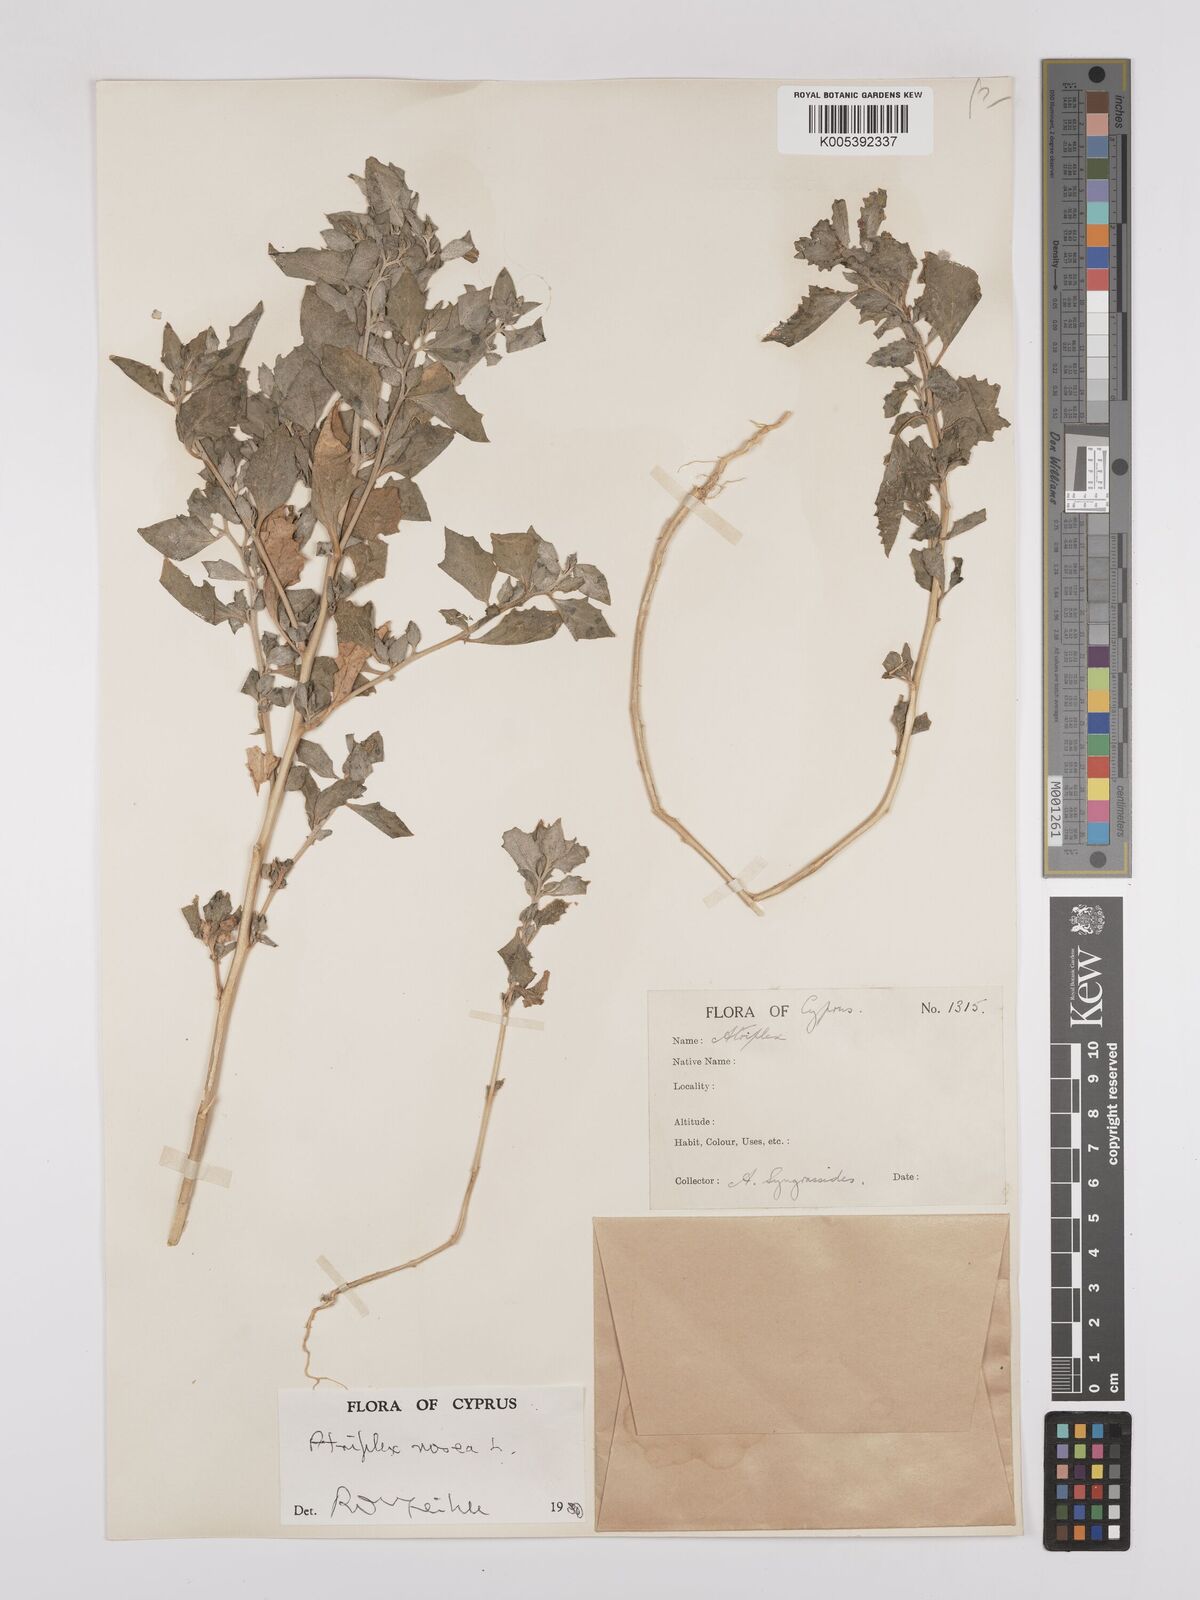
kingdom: Plantae
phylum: Tracheophyta
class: Magnoliopsida
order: Caryophyllales
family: Amaranthaceae
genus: Atriplex
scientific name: Atriplex
